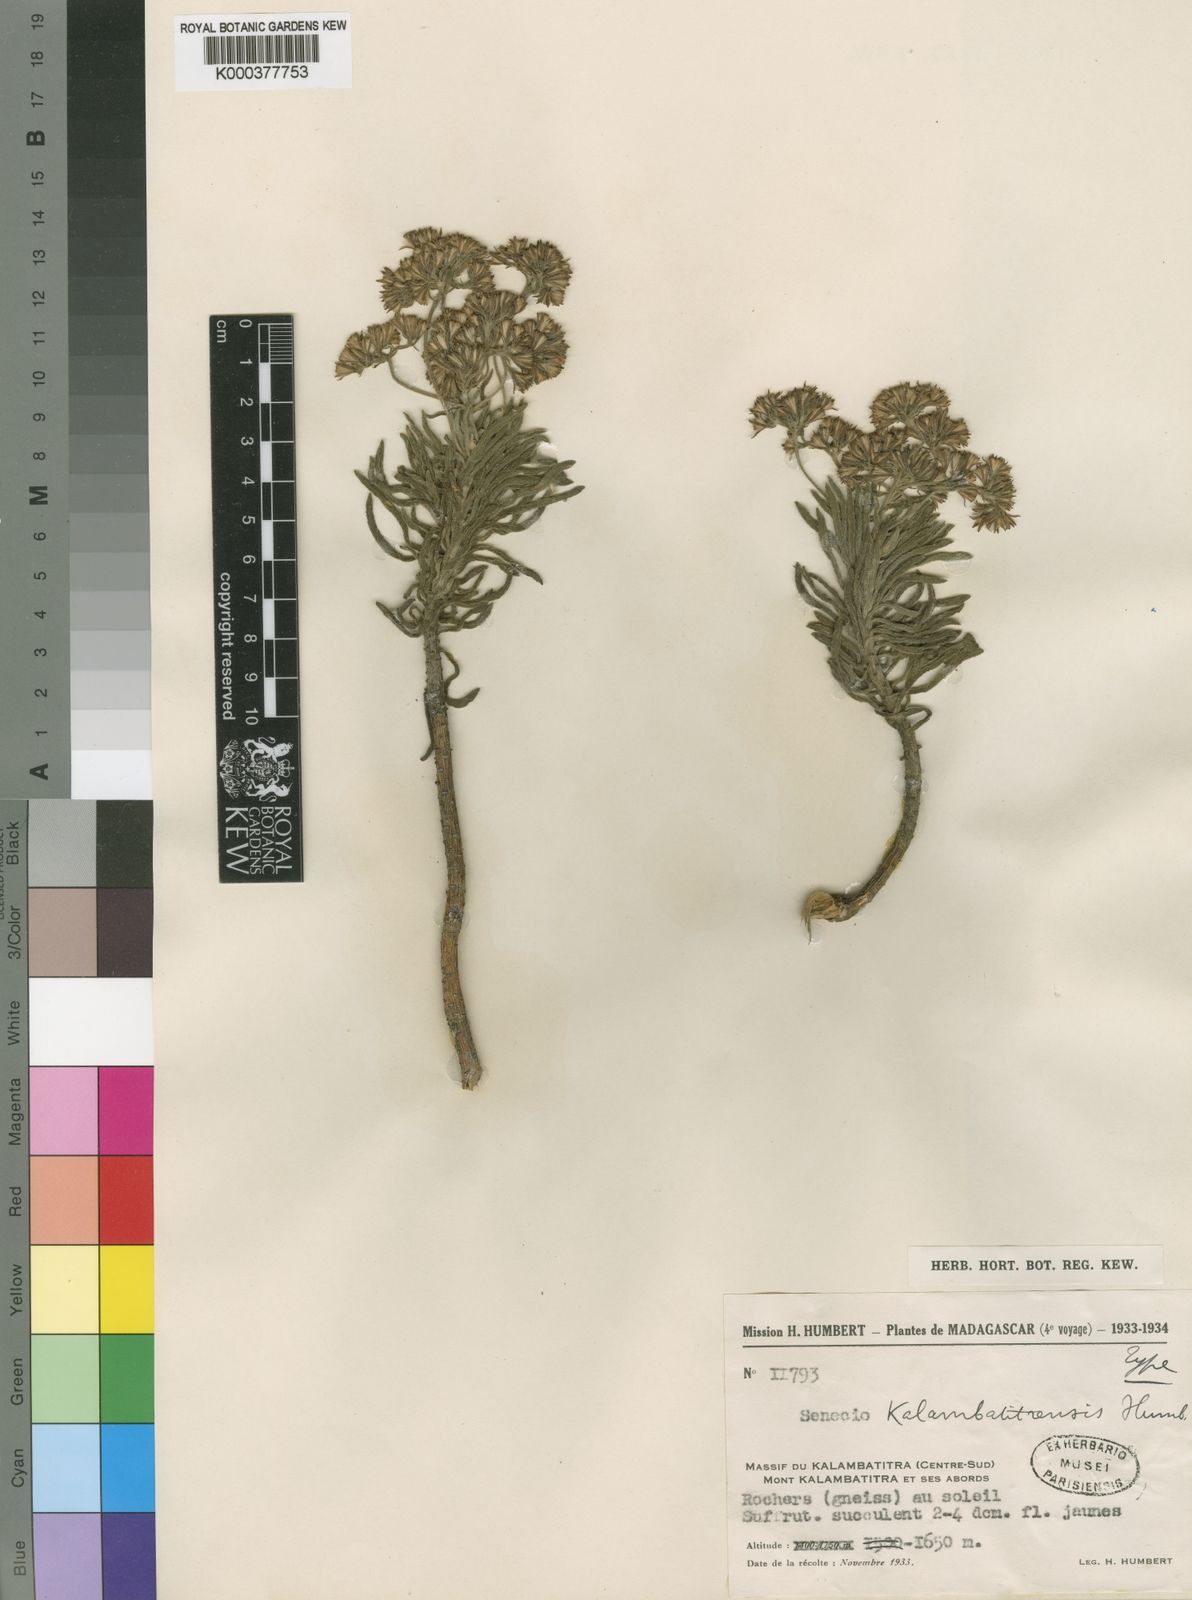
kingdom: Plantae
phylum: Tracheophyta
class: Magnoliopsida
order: Asterales
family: Asteraceae
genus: Senecio
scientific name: Senecio kalambatitrensis
